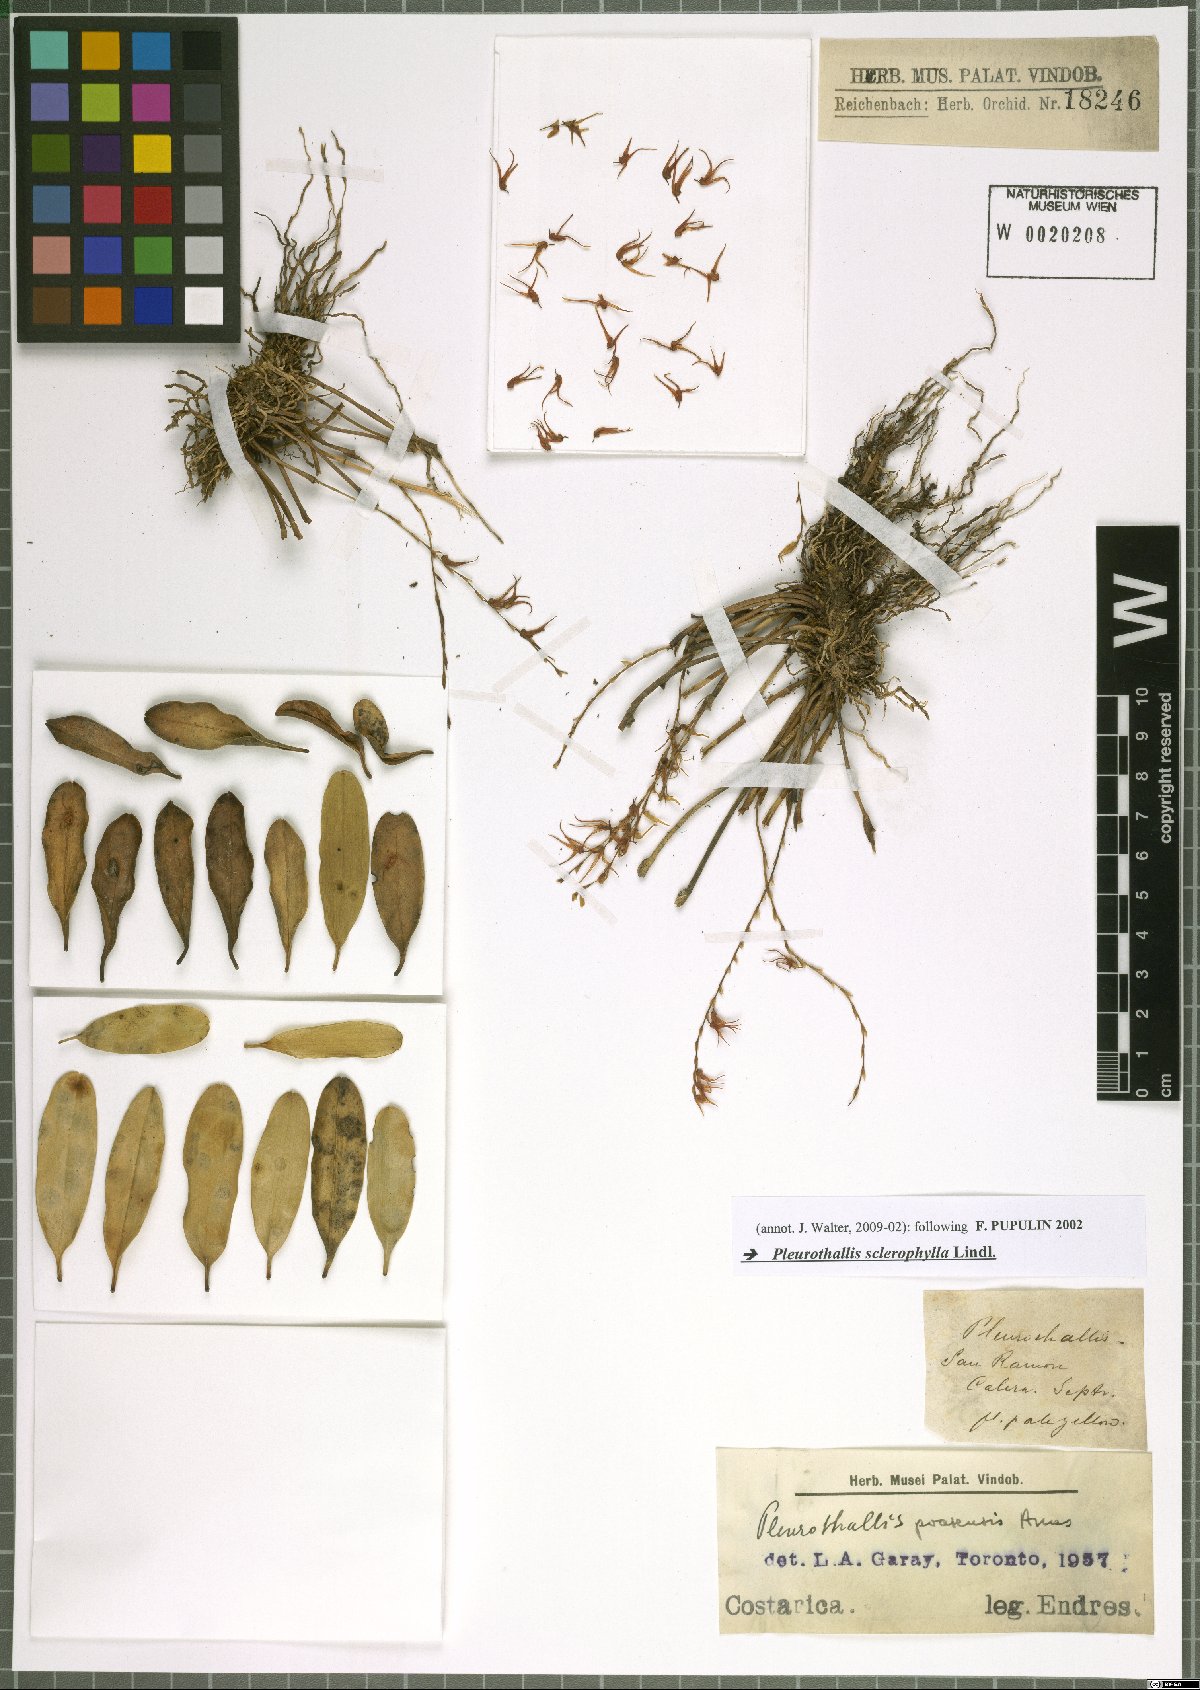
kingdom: Plantae
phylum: Tracheophyta
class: Liliopsida
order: Asparagales
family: Orchidaceae
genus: Stelis
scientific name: Stelis sclerophylla
